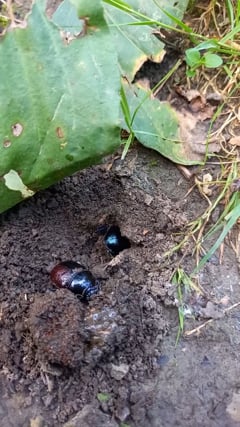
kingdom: Animalia
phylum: Arthropoda
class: Insecta
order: Coleoptera
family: Geotrupidae
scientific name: Geotrupidae
